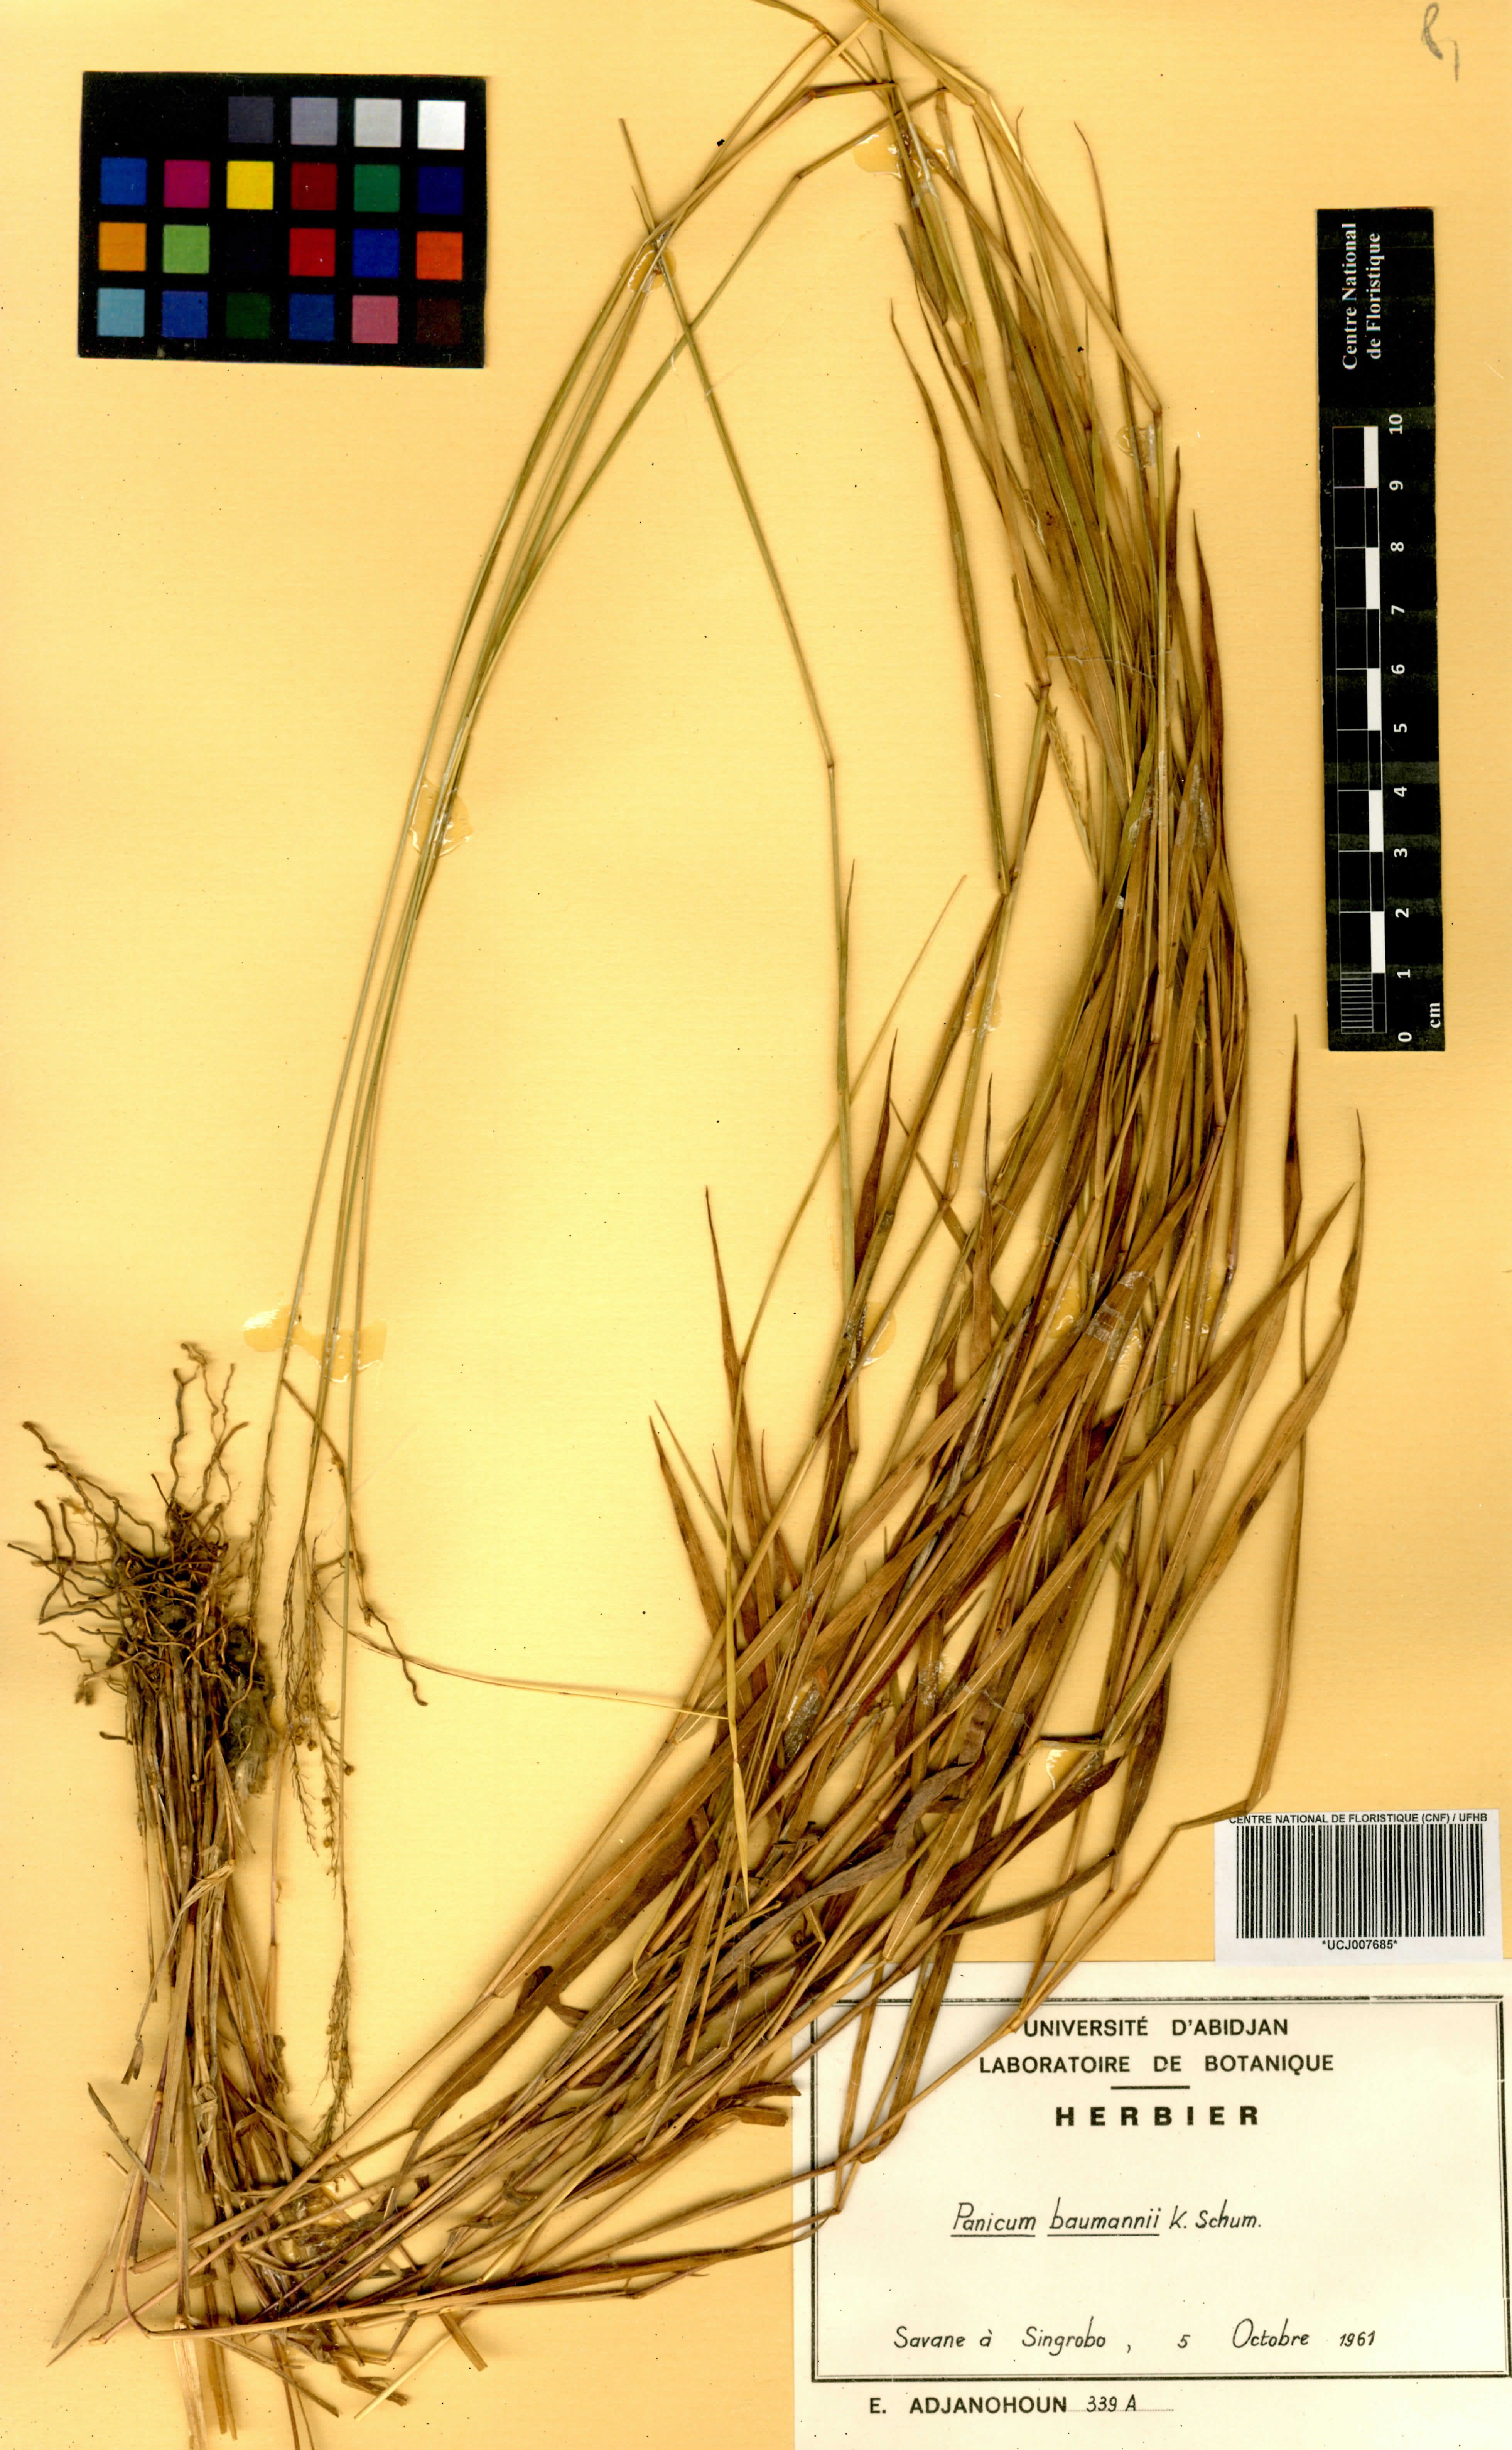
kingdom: Plantae
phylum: Tracheophyta
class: Liliopsida
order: Poales
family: Poaceae
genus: Trichanthecium
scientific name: Trichanthecium nervatum
